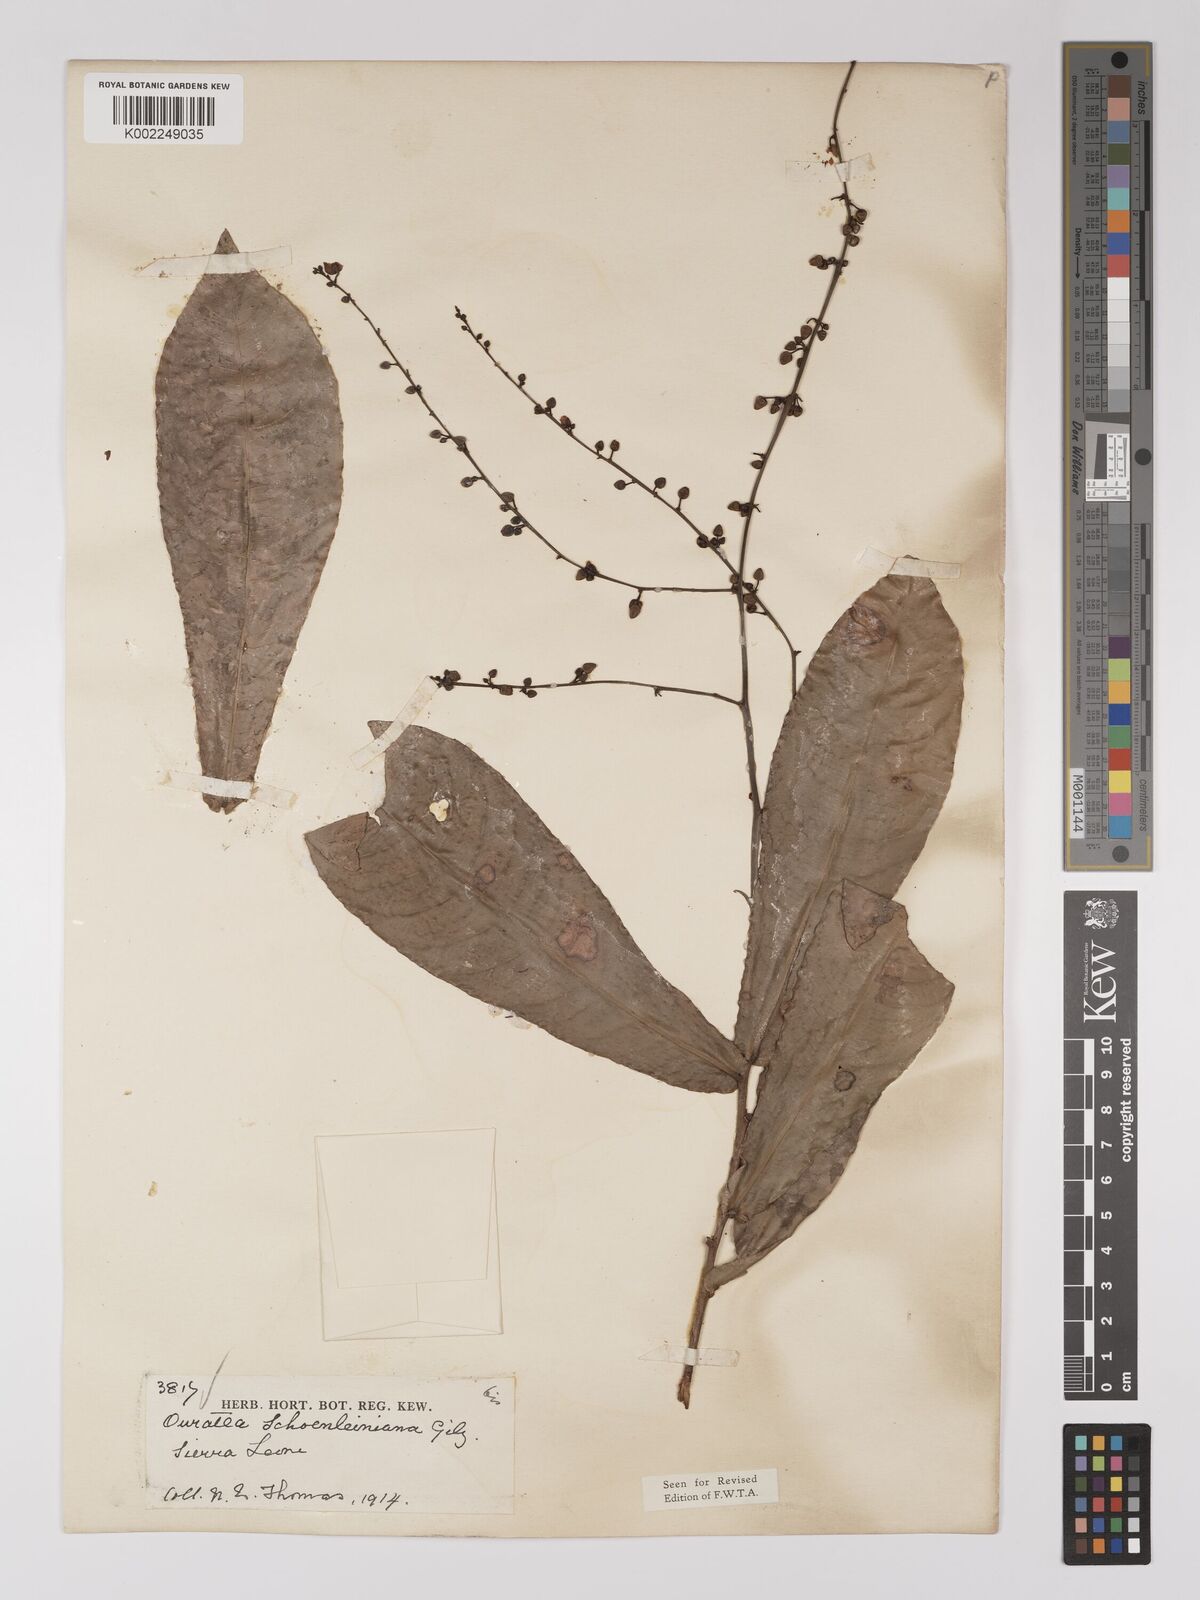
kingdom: Plantae
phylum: Tracheophyta
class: Magnoliopsida
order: Malpighiales
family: Ochnaceae
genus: Campylospermum
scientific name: Campylospermum schoenleinianum
